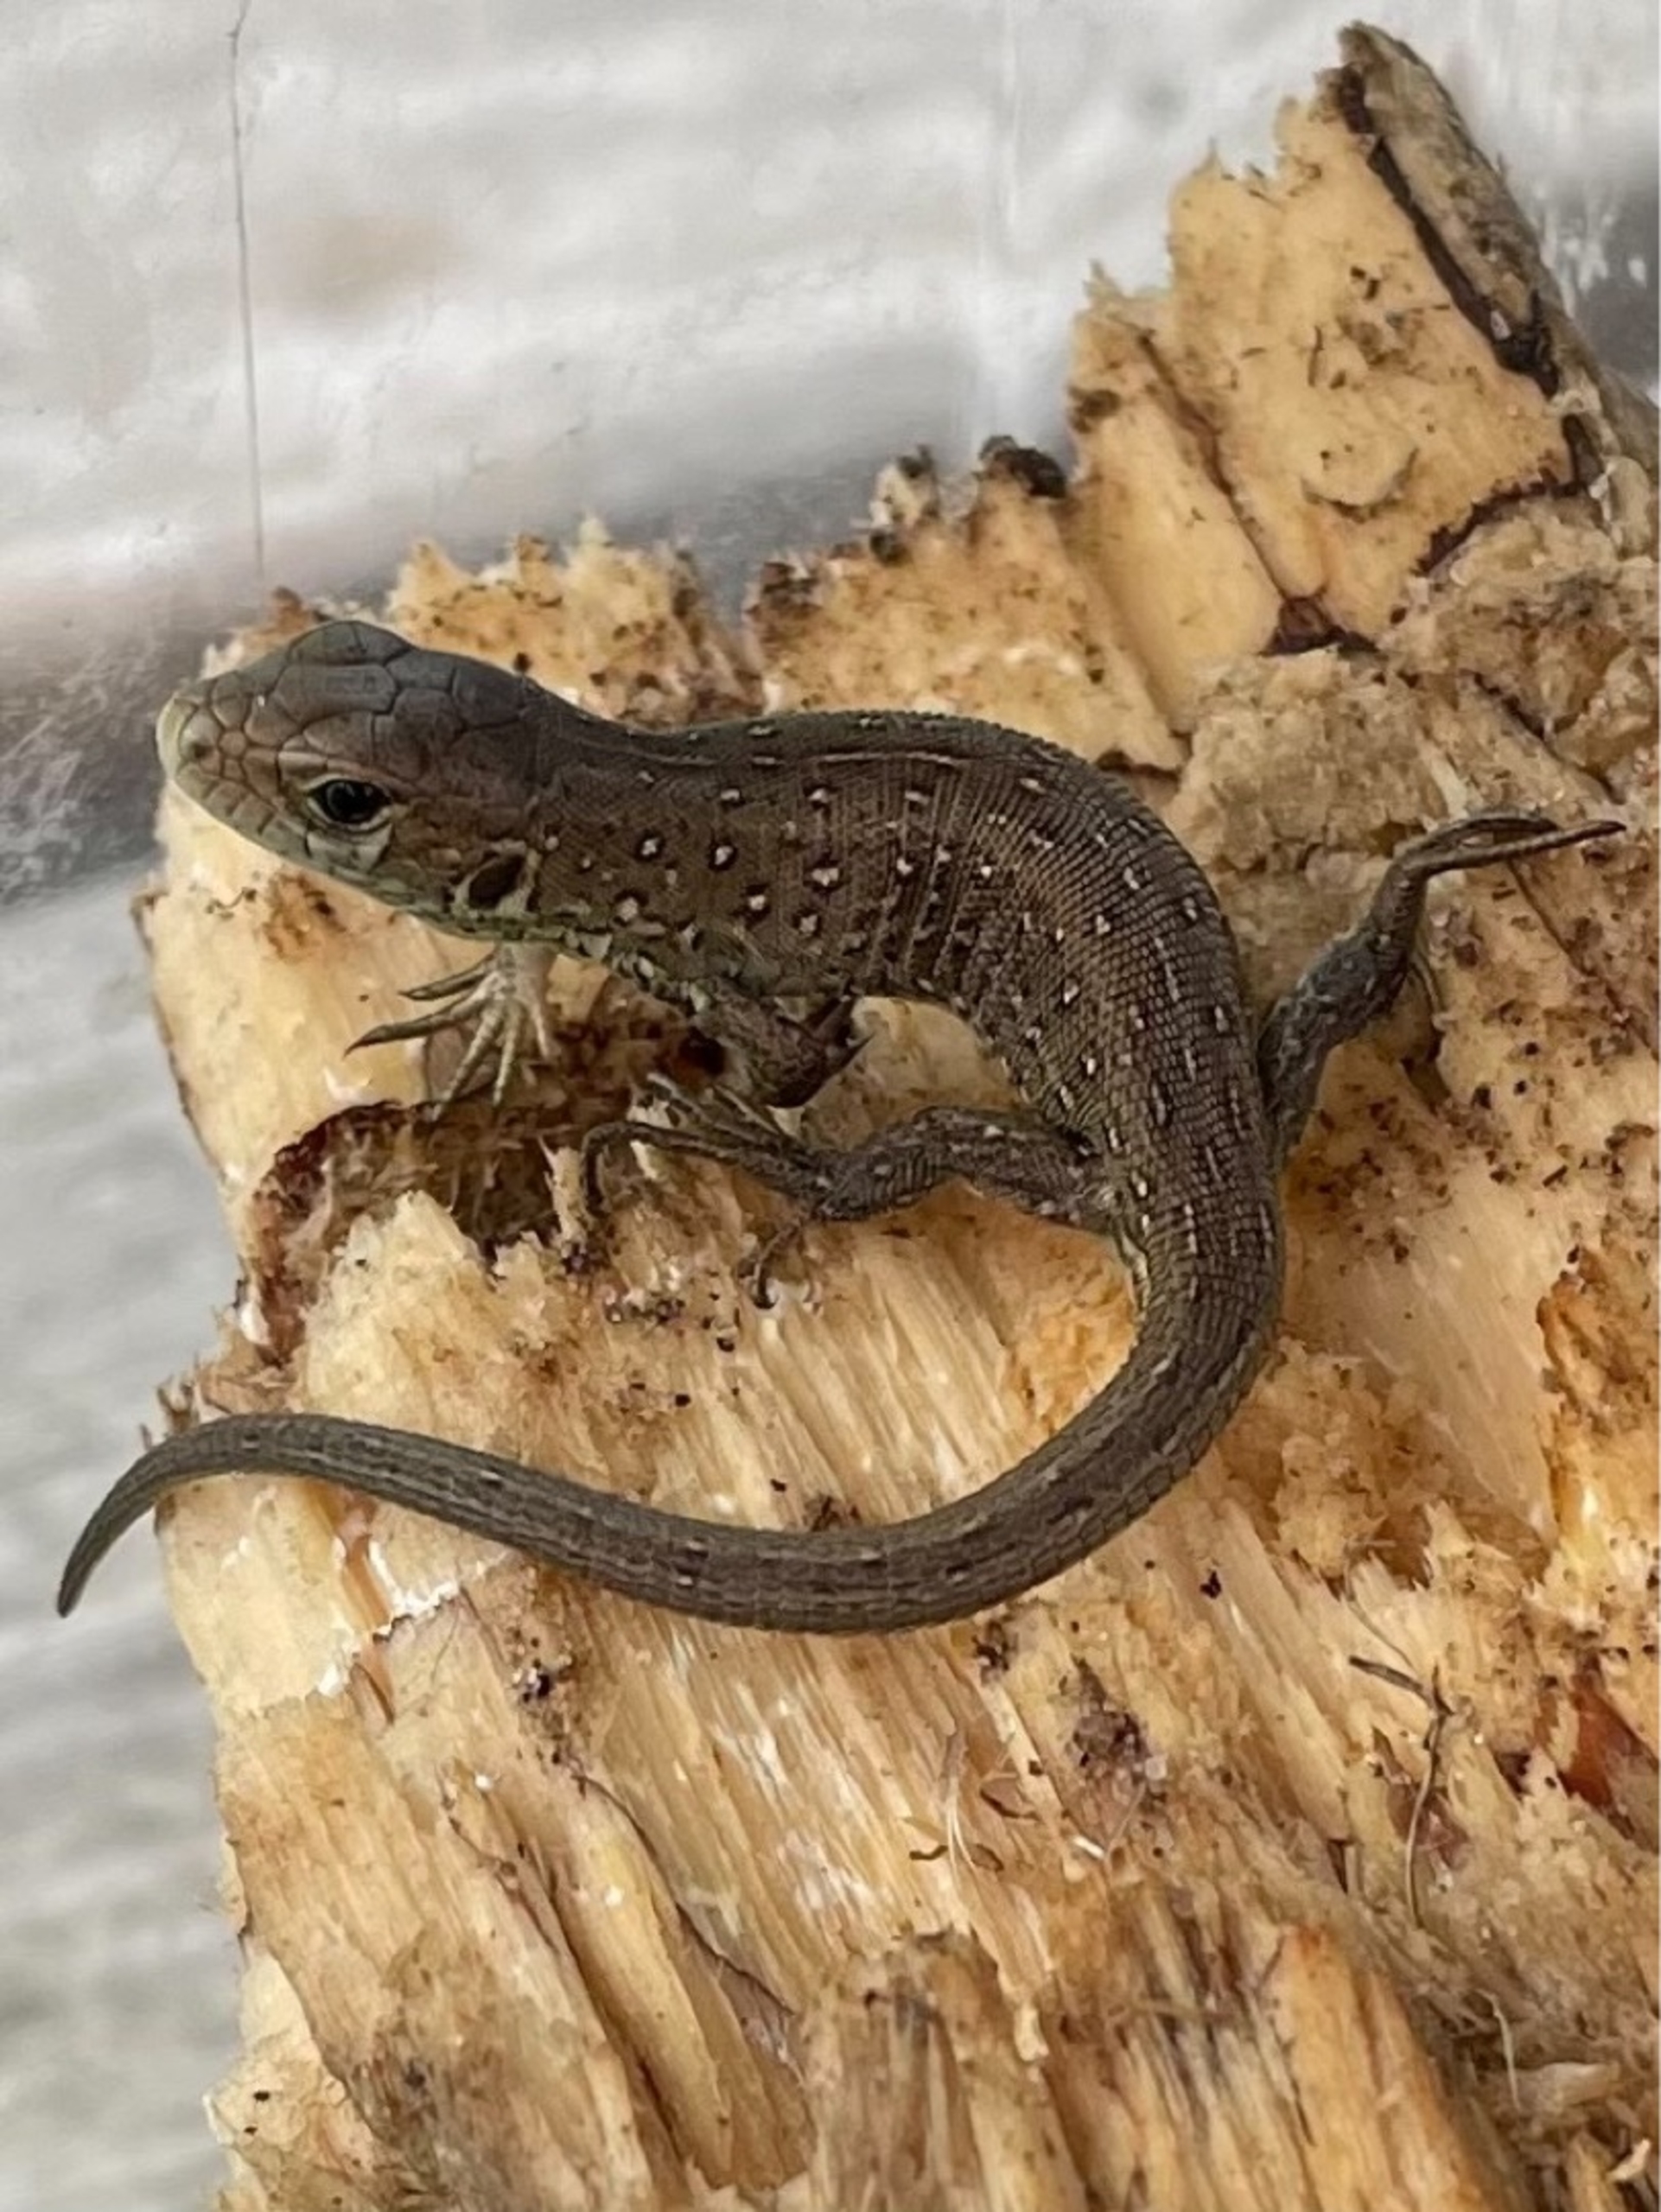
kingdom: Animalia
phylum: Chordata
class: Squamata
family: Lacertidae
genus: Lacerta
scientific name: Lacerta agilis
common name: Markfirben
